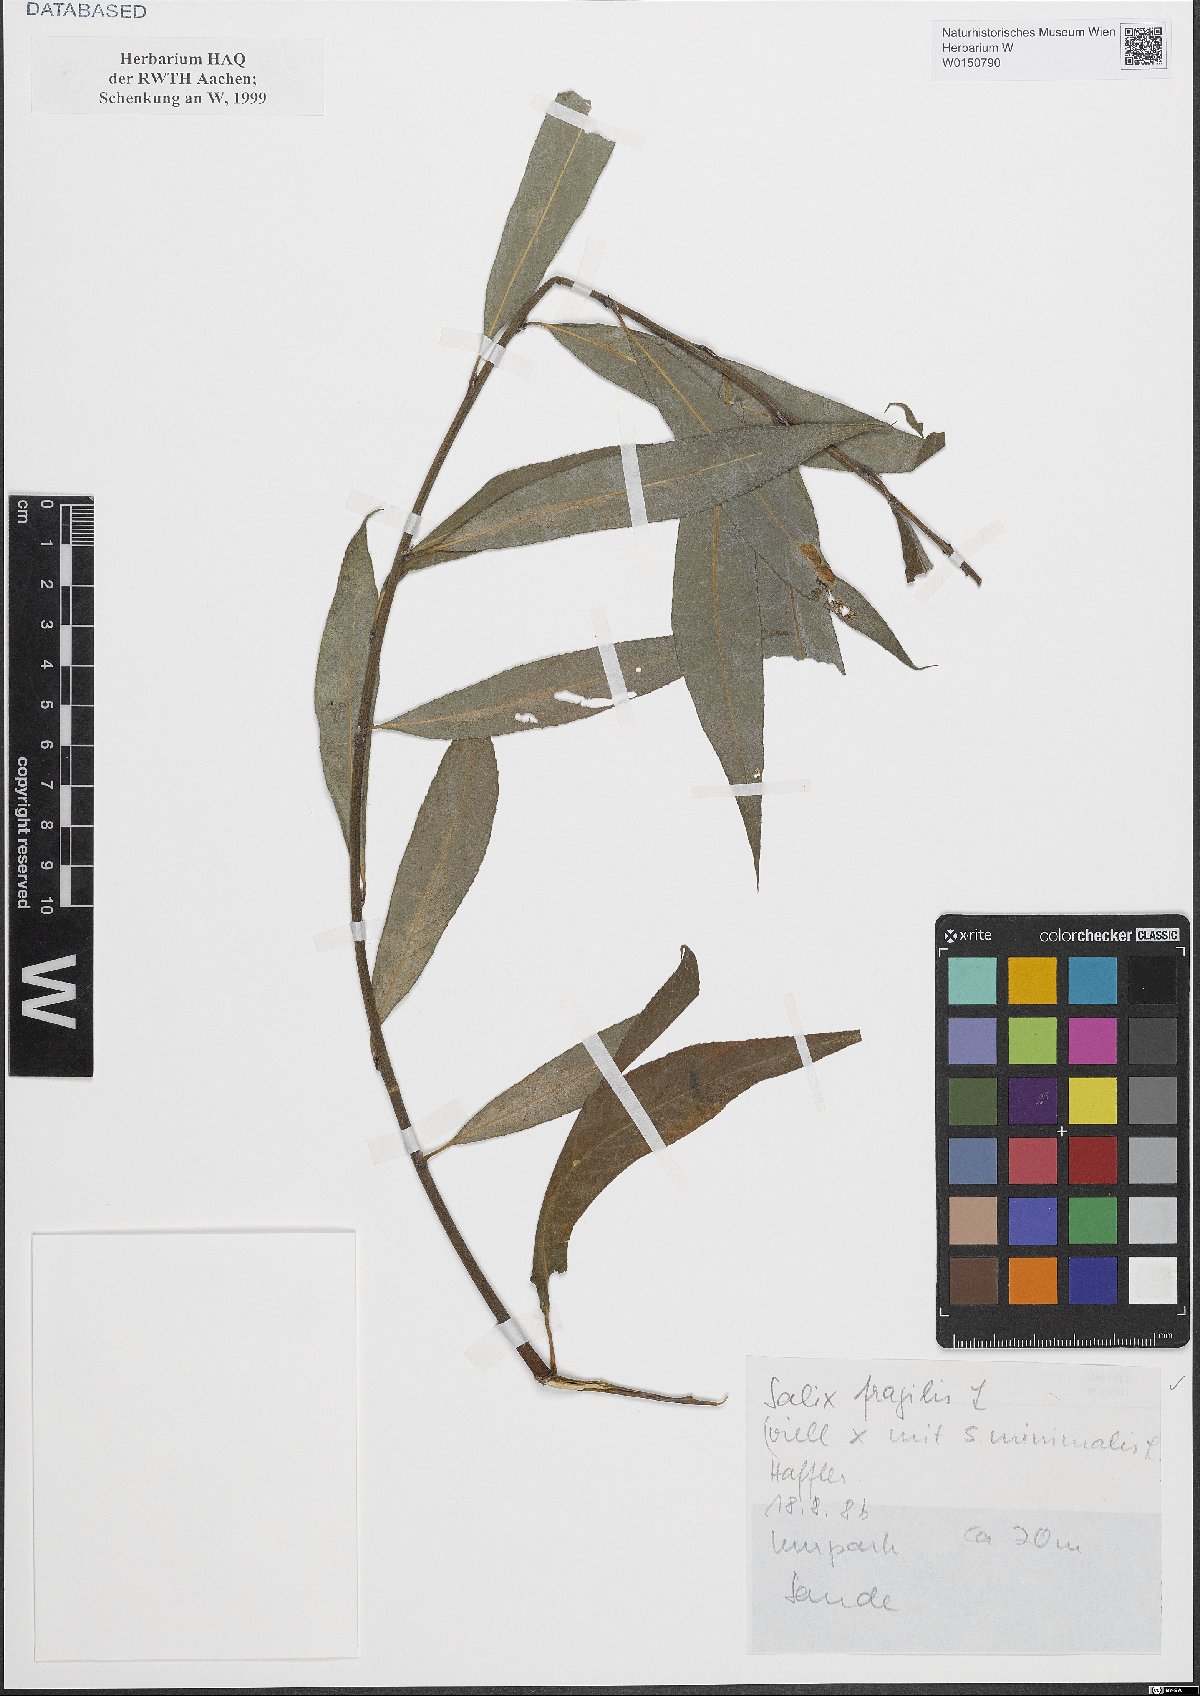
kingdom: Plantae
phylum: Tracheophyta
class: Magnoliopsida
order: Malpighiales
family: Salicaceae
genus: Salix
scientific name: Salix fragilis
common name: Crack willow
